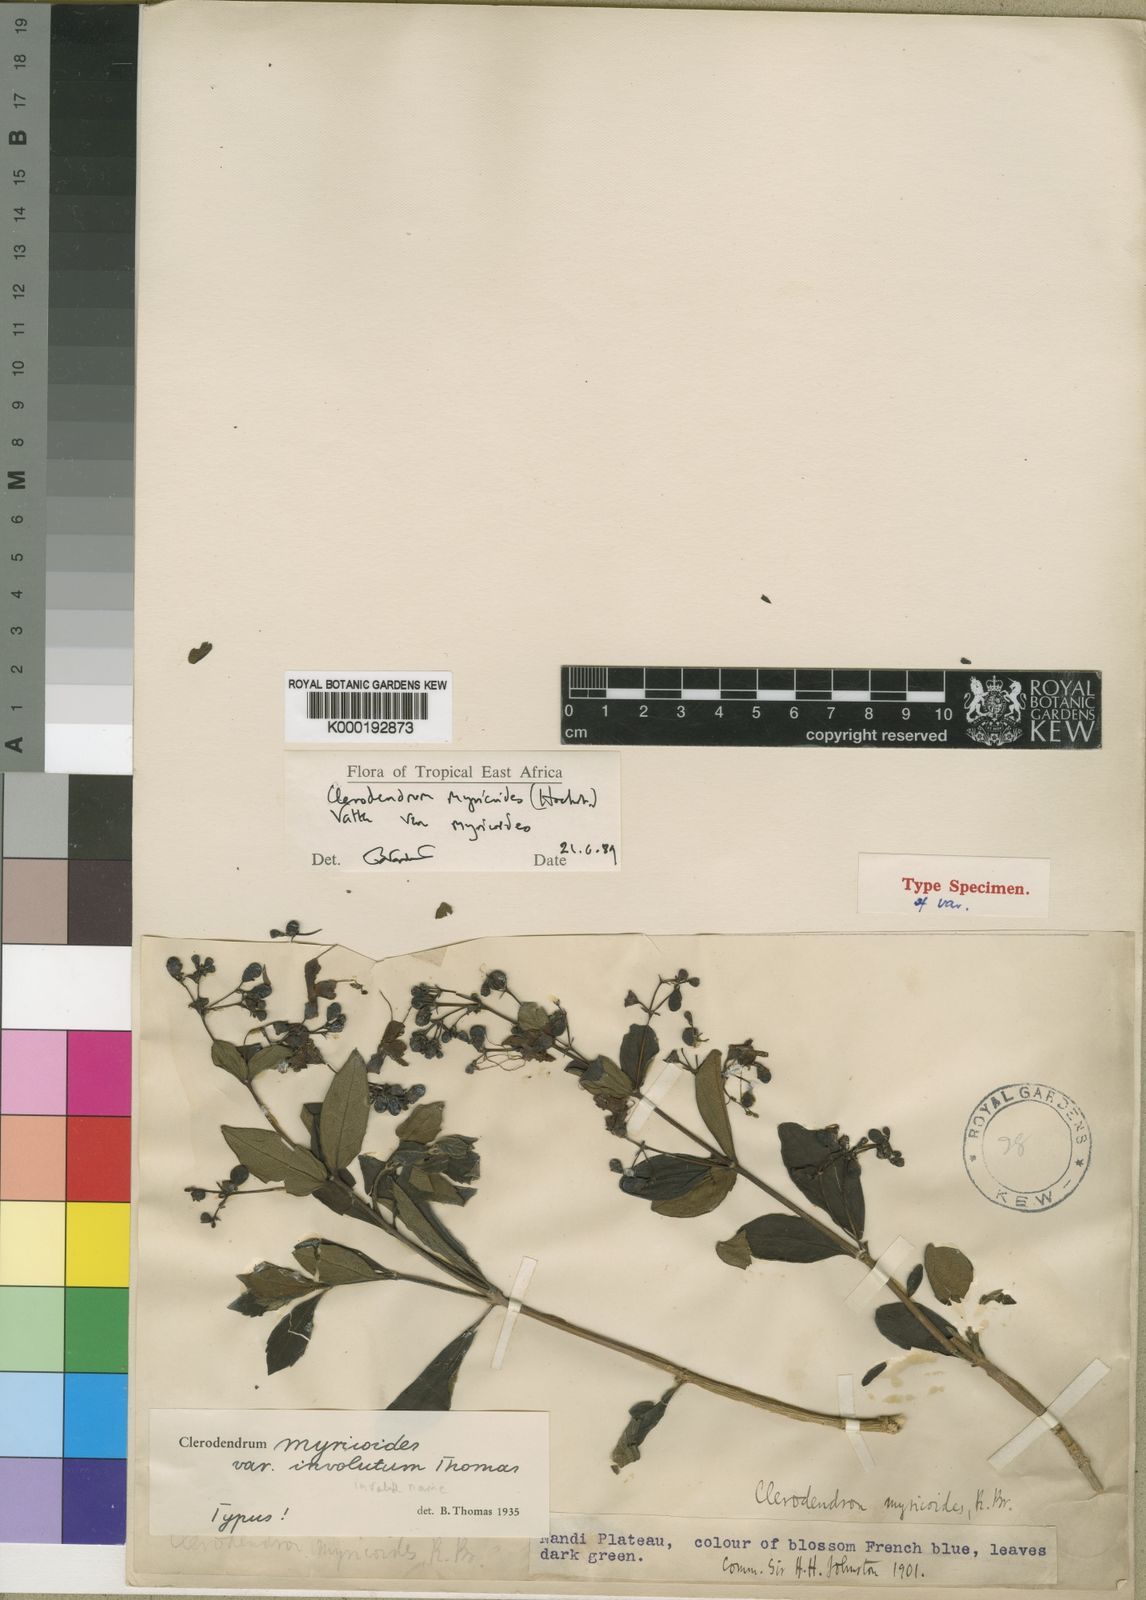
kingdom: Plantae
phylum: Tracheophyta
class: Magnoliopsida
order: Lamiales
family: Lamiaceae
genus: Rotheca
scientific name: Rotheca myricoides
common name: Cats-whiskers
